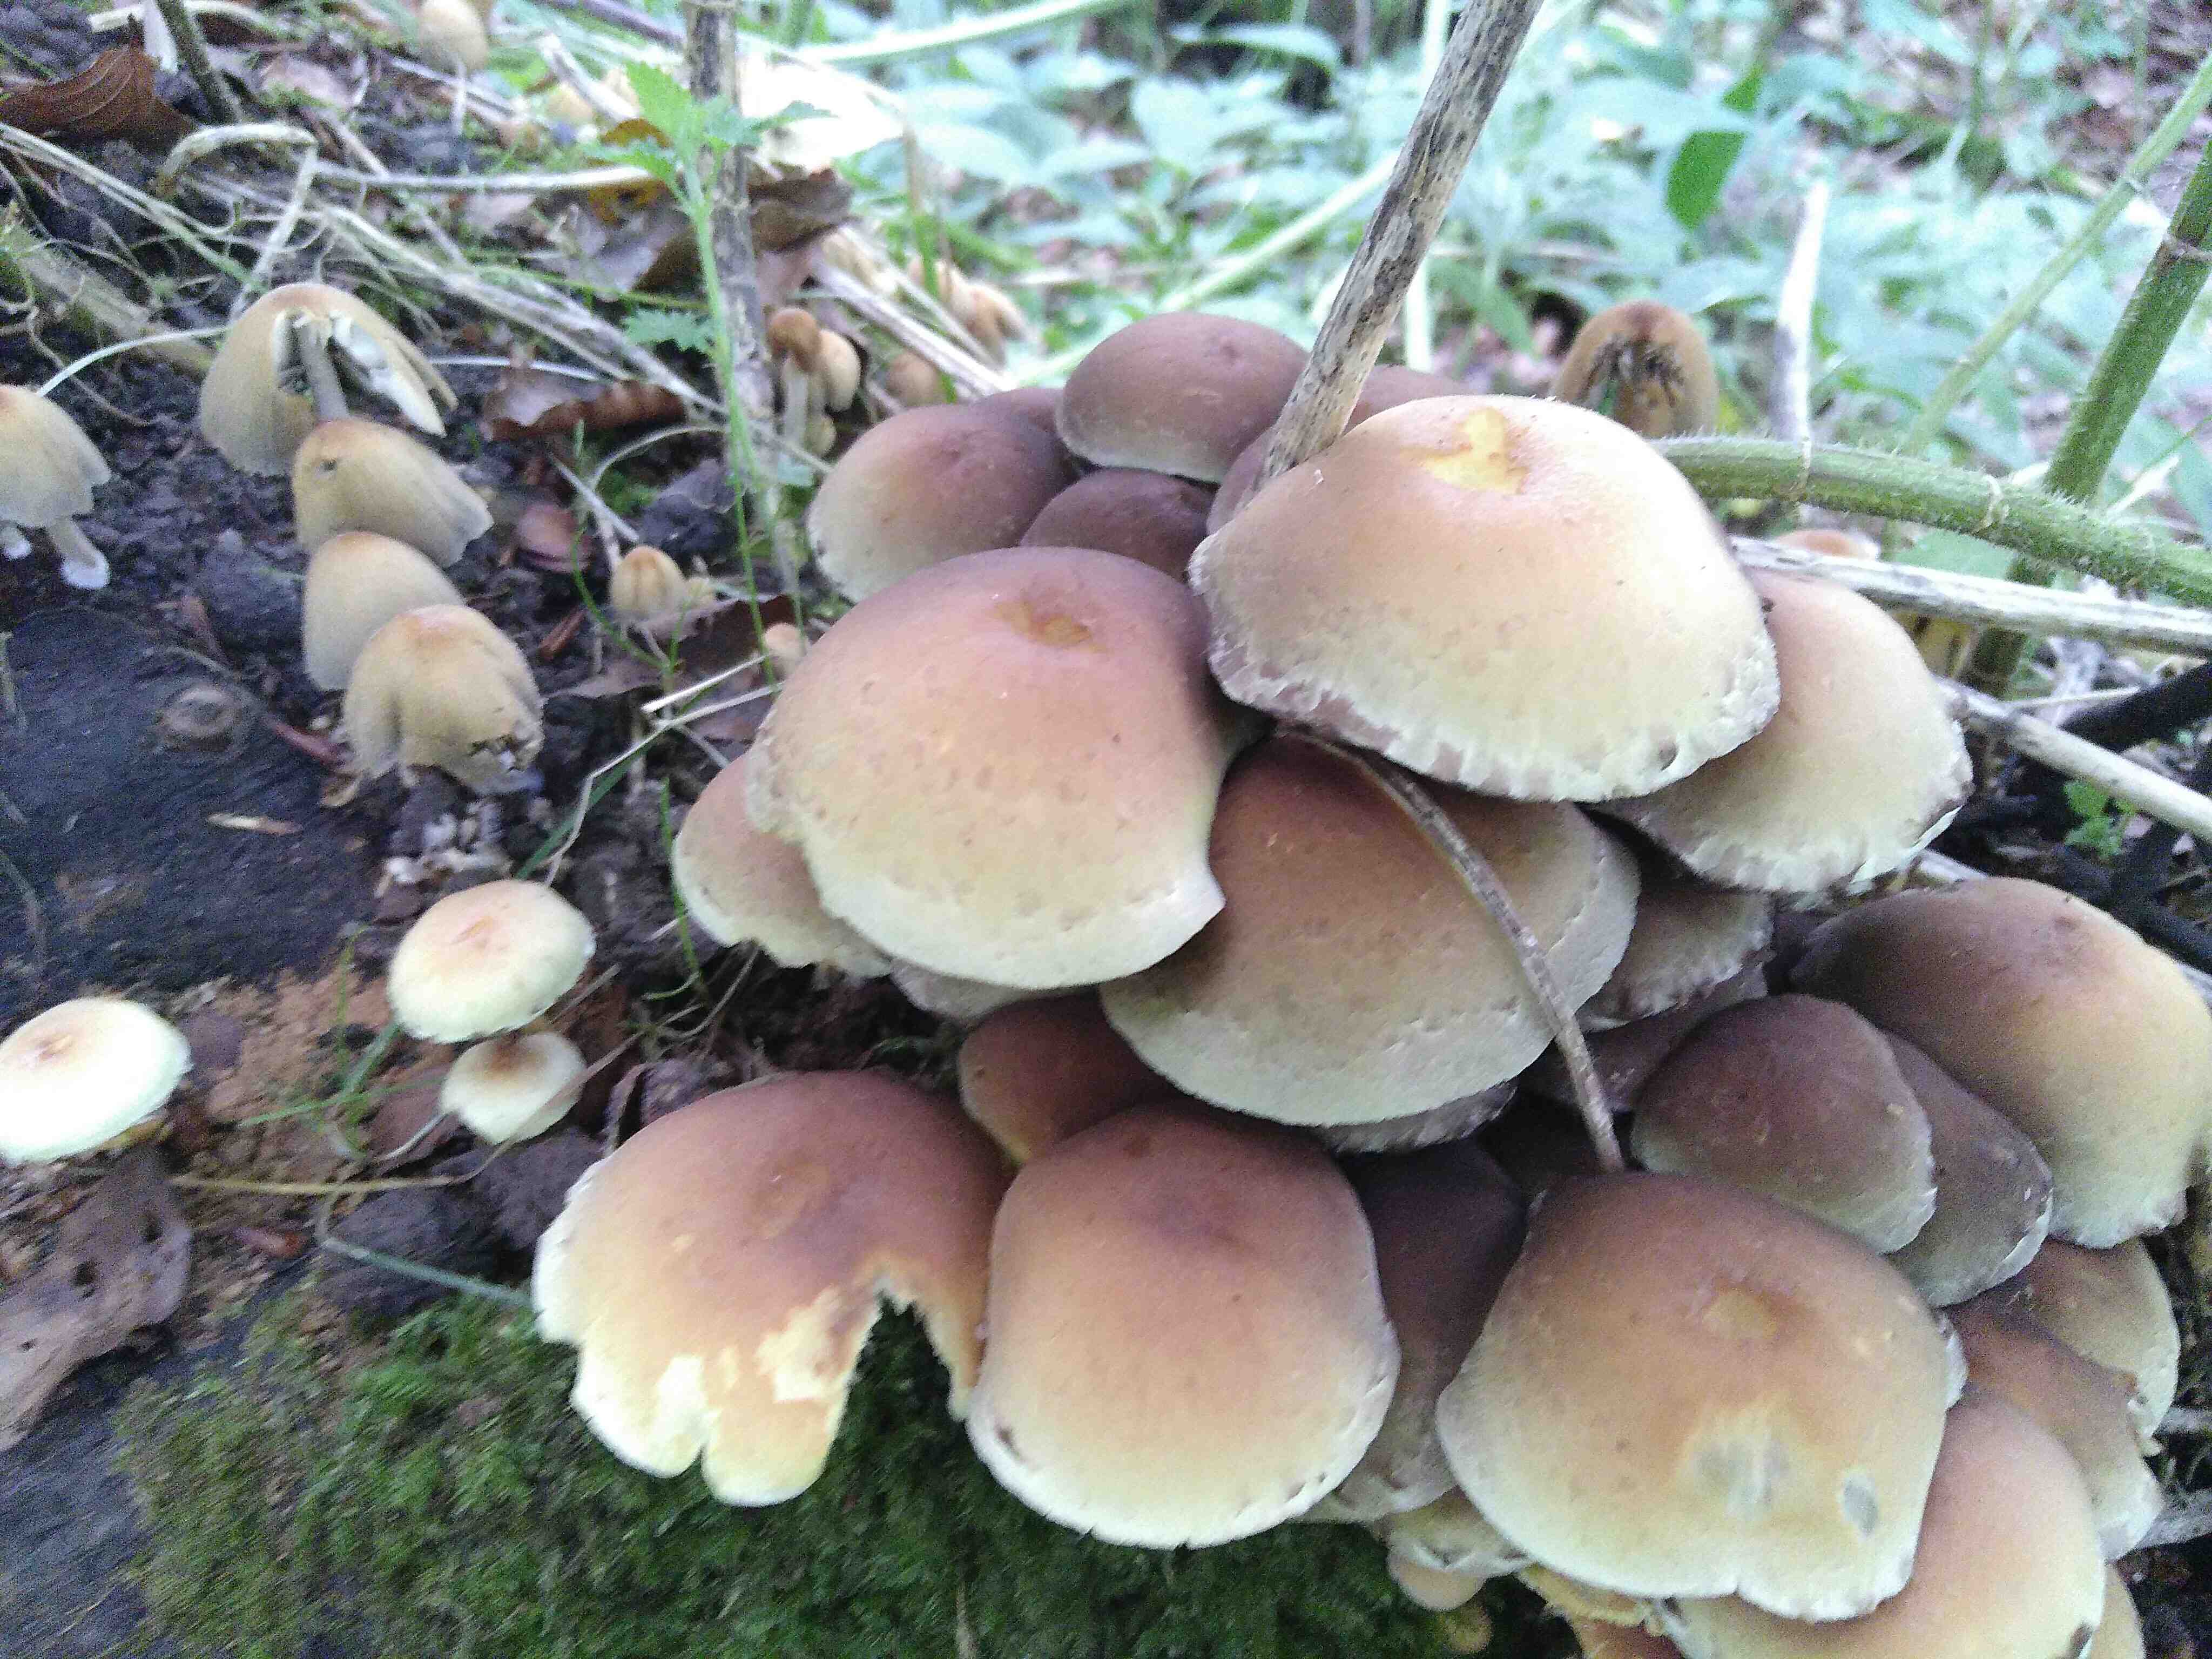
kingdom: Fungi
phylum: Basidiomycota
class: Agaricomycetes
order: Agaricales
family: Strophariaceae
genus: Hypholoma
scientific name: Hypholoma fasciculare
